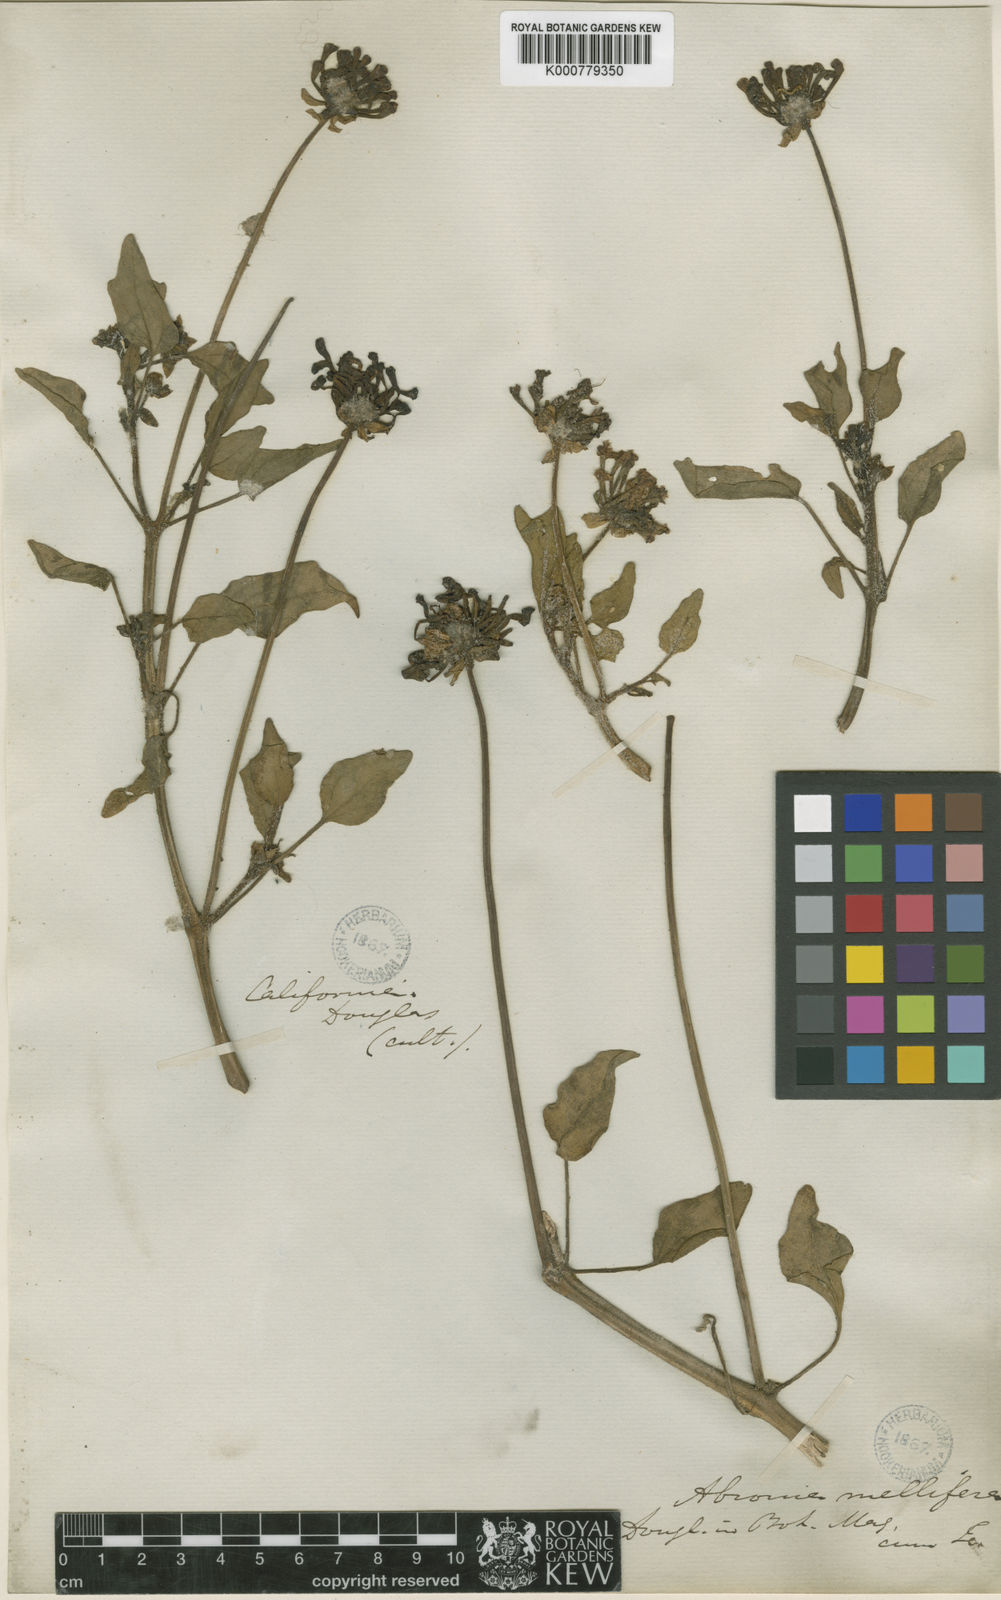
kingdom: Plantae
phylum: Tracheophyta
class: Magnoliopsida
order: Caryophyllales
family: Nyctaginaceae
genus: Abronia
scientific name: Abronia
